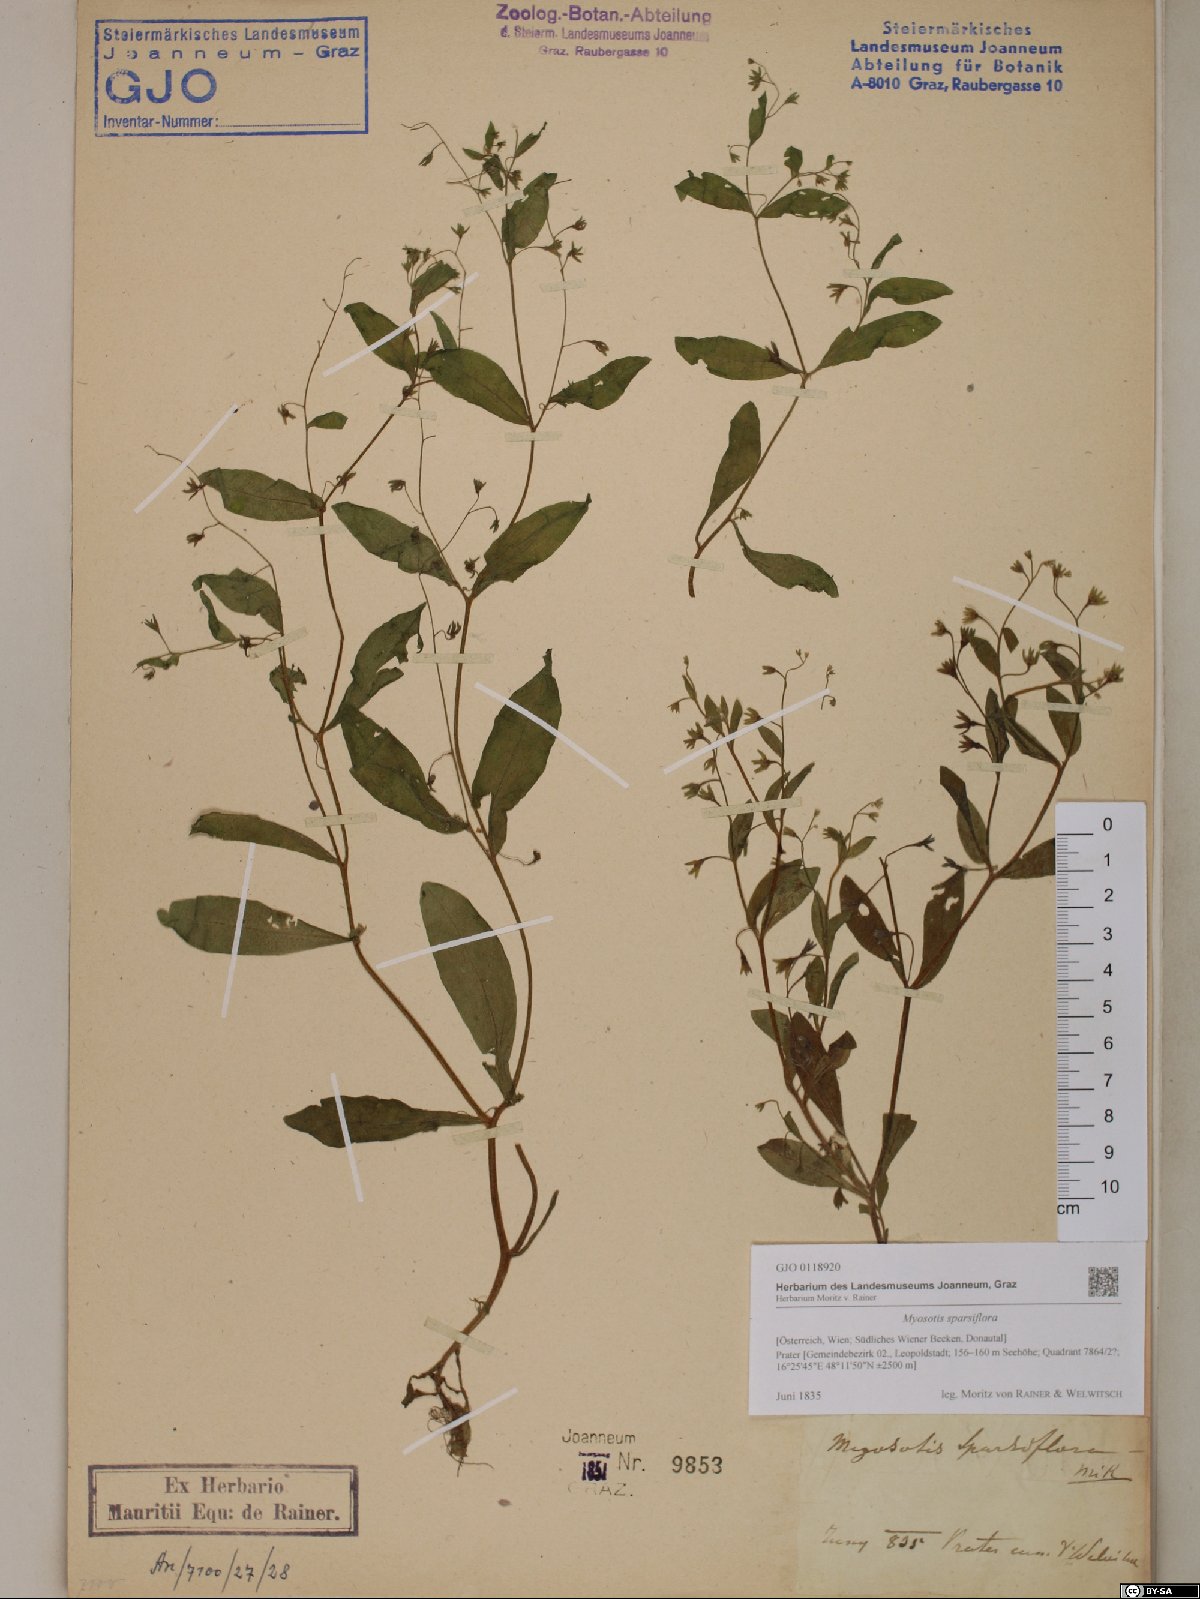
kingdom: Plantae
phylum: Tracheophyta
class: Magnoliopsida
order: Boraginales
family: Boraginaceae
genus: Myosotis
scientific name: Myosotis sparsiflora
